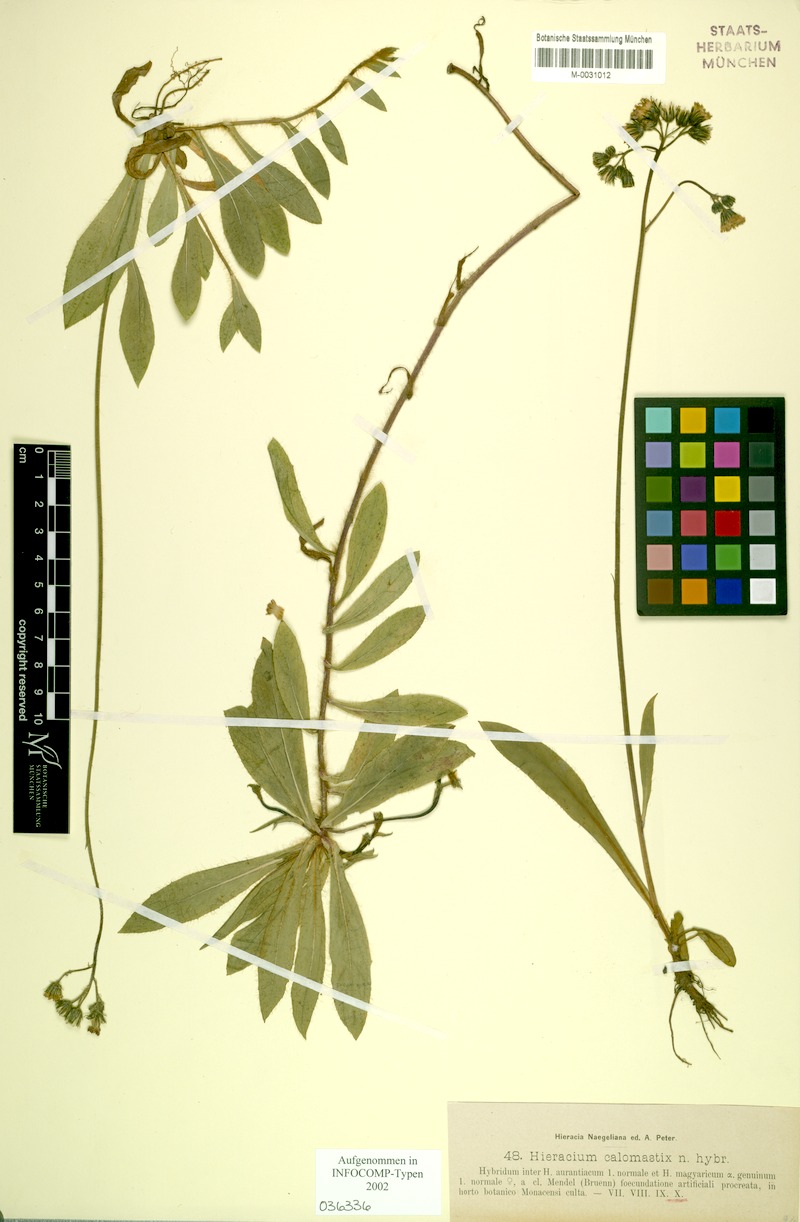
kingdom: Plantae
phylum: Tracheophyta
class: Magnoliopsida
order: Asterales
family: Asteraceae
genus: Pilosella
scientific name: Pilosella calomastix
